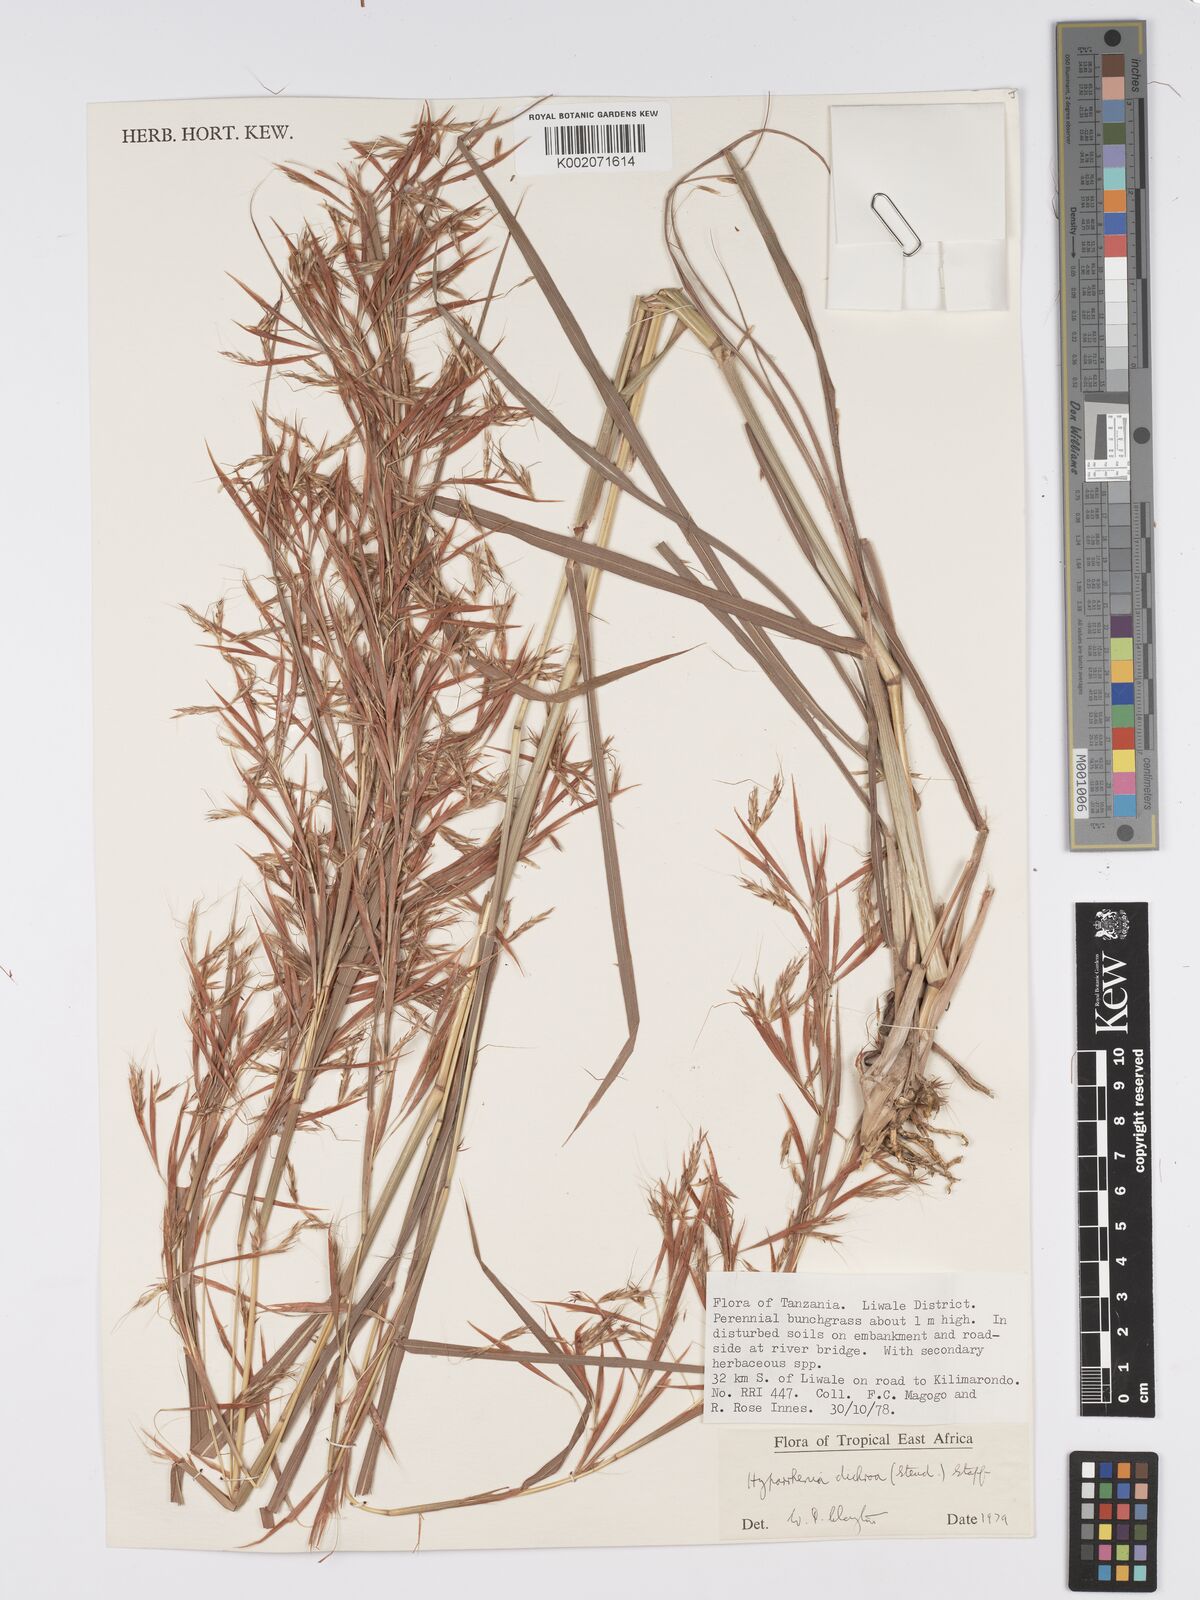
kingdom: Plantae
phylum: Tracheophyta
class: Liliopsida
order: Poales
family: Poaceae
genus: Hyparrhenia
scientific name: Hyparrhenia dichroa
